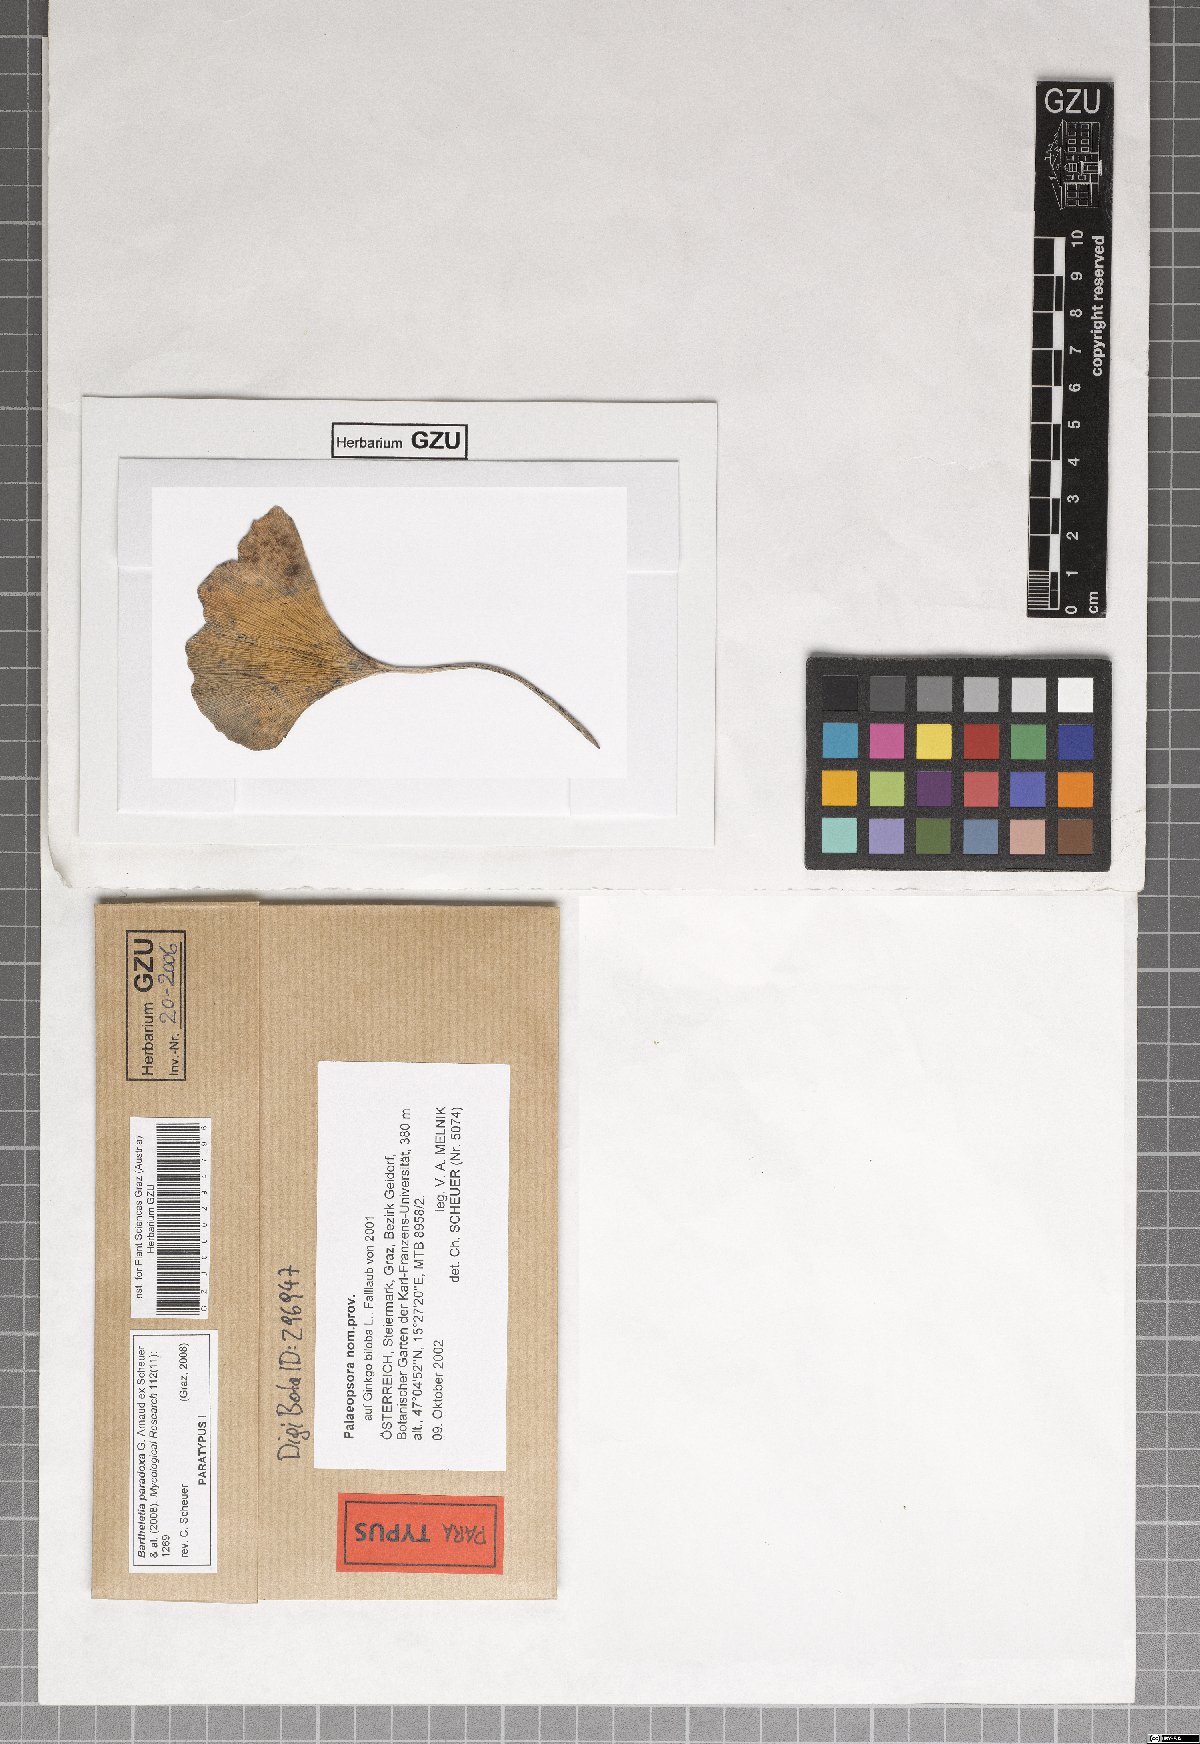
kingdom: Fungi
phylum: Basidiomycota
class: Wallemiomycetes
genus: Bartheletia
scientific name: Bartheletia paradoxa
